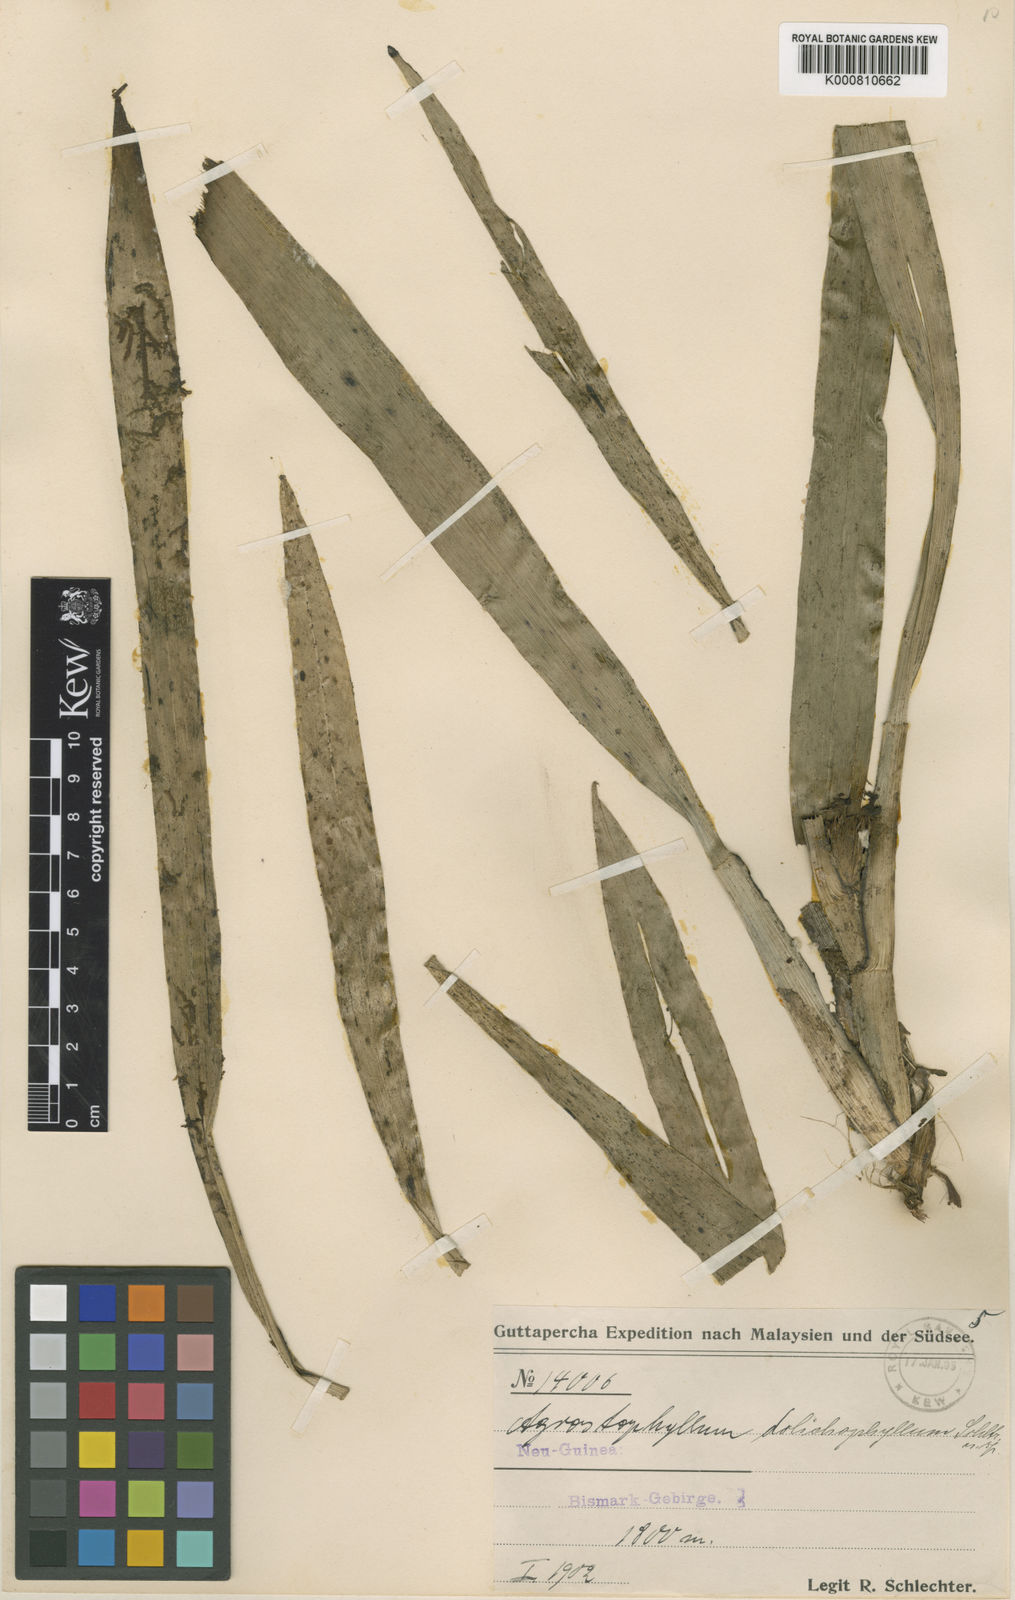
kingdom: Plantae
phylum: Tracheophyta
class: Liliopsida
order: Asparagales
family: Orchidaceae
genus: Agrostophyllum
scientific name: Agrostophyllum dolichophyllum
